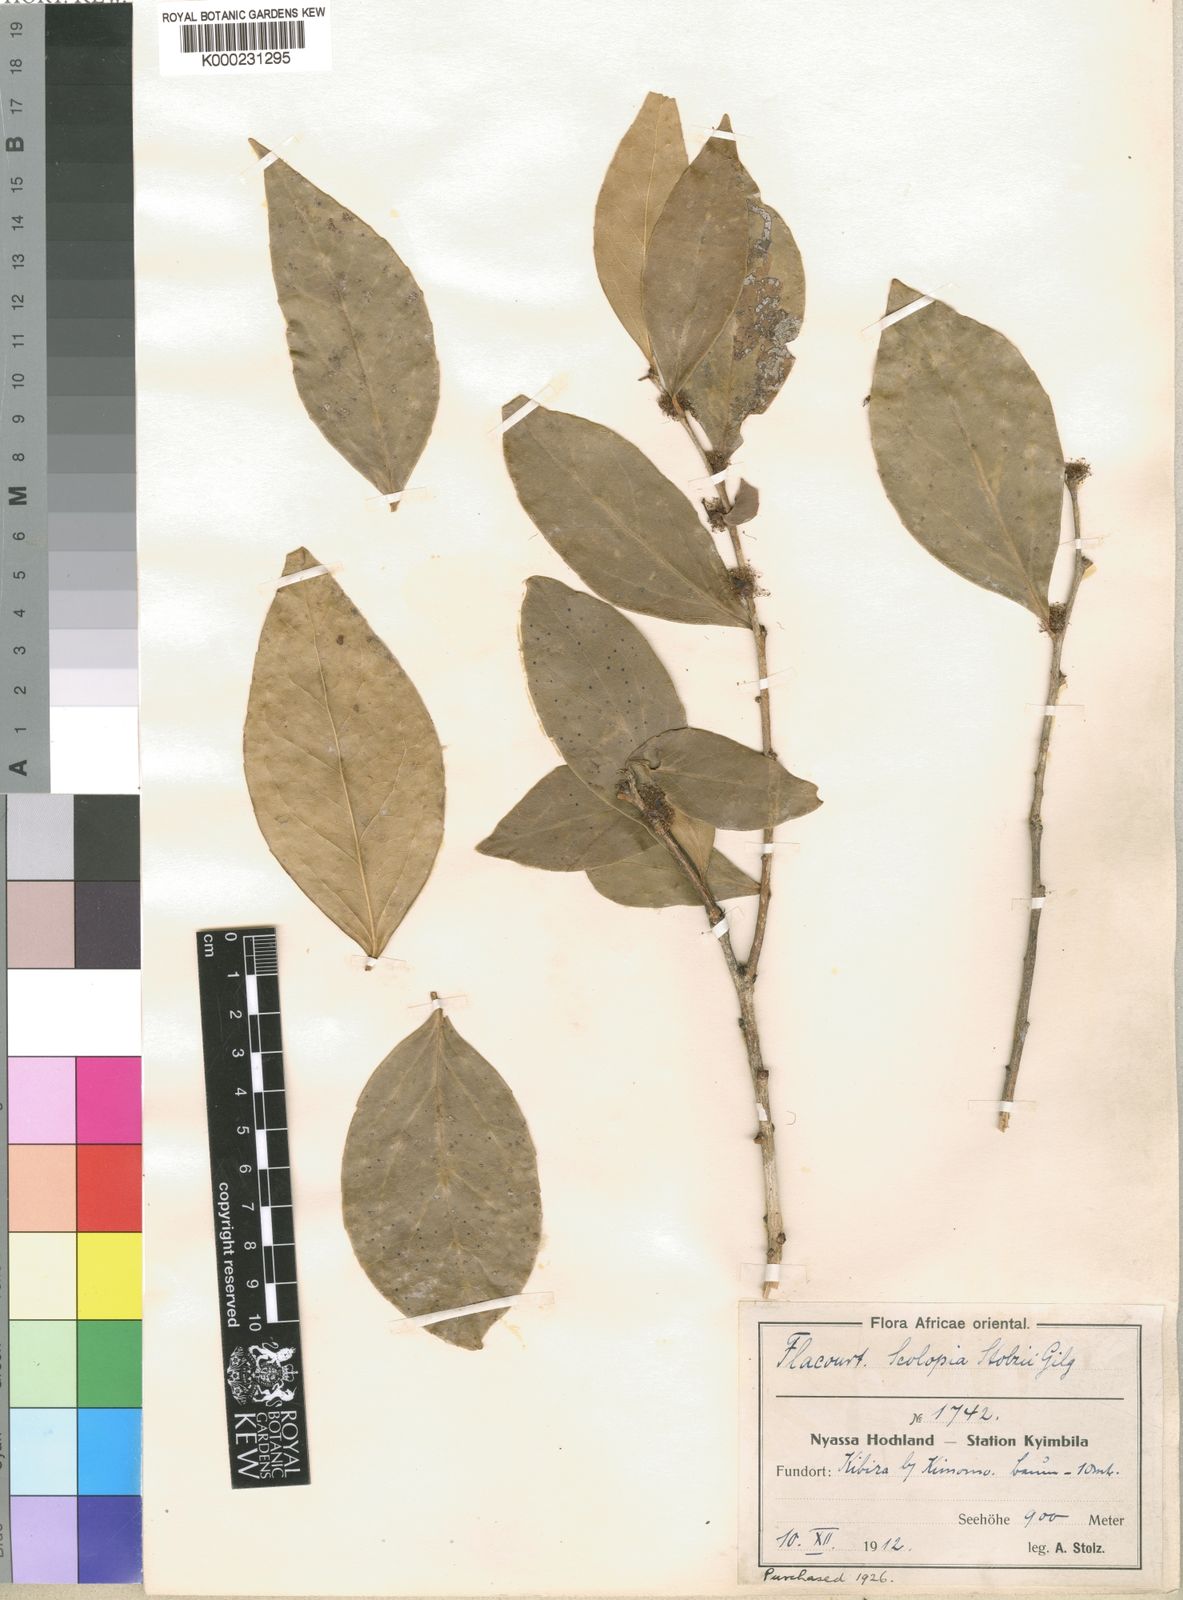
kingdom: Plantae
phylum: Tracheophyta
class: Magnoliopsida
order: Malpighiales
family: Salicaceae
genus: Scolopia
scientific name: Scolopia stolzii
